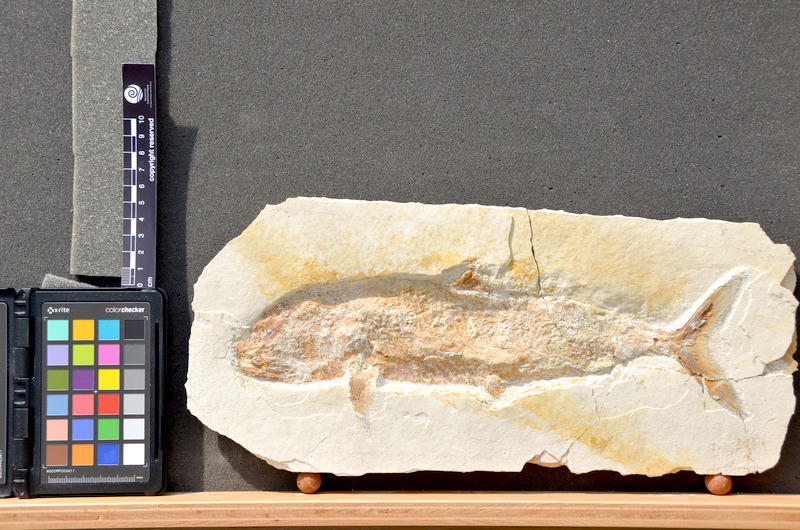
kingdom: Animalia
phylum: Chordata
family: Ankylophoridae
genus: Siemensichthys
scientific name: Siemensichthys macrocephalus
